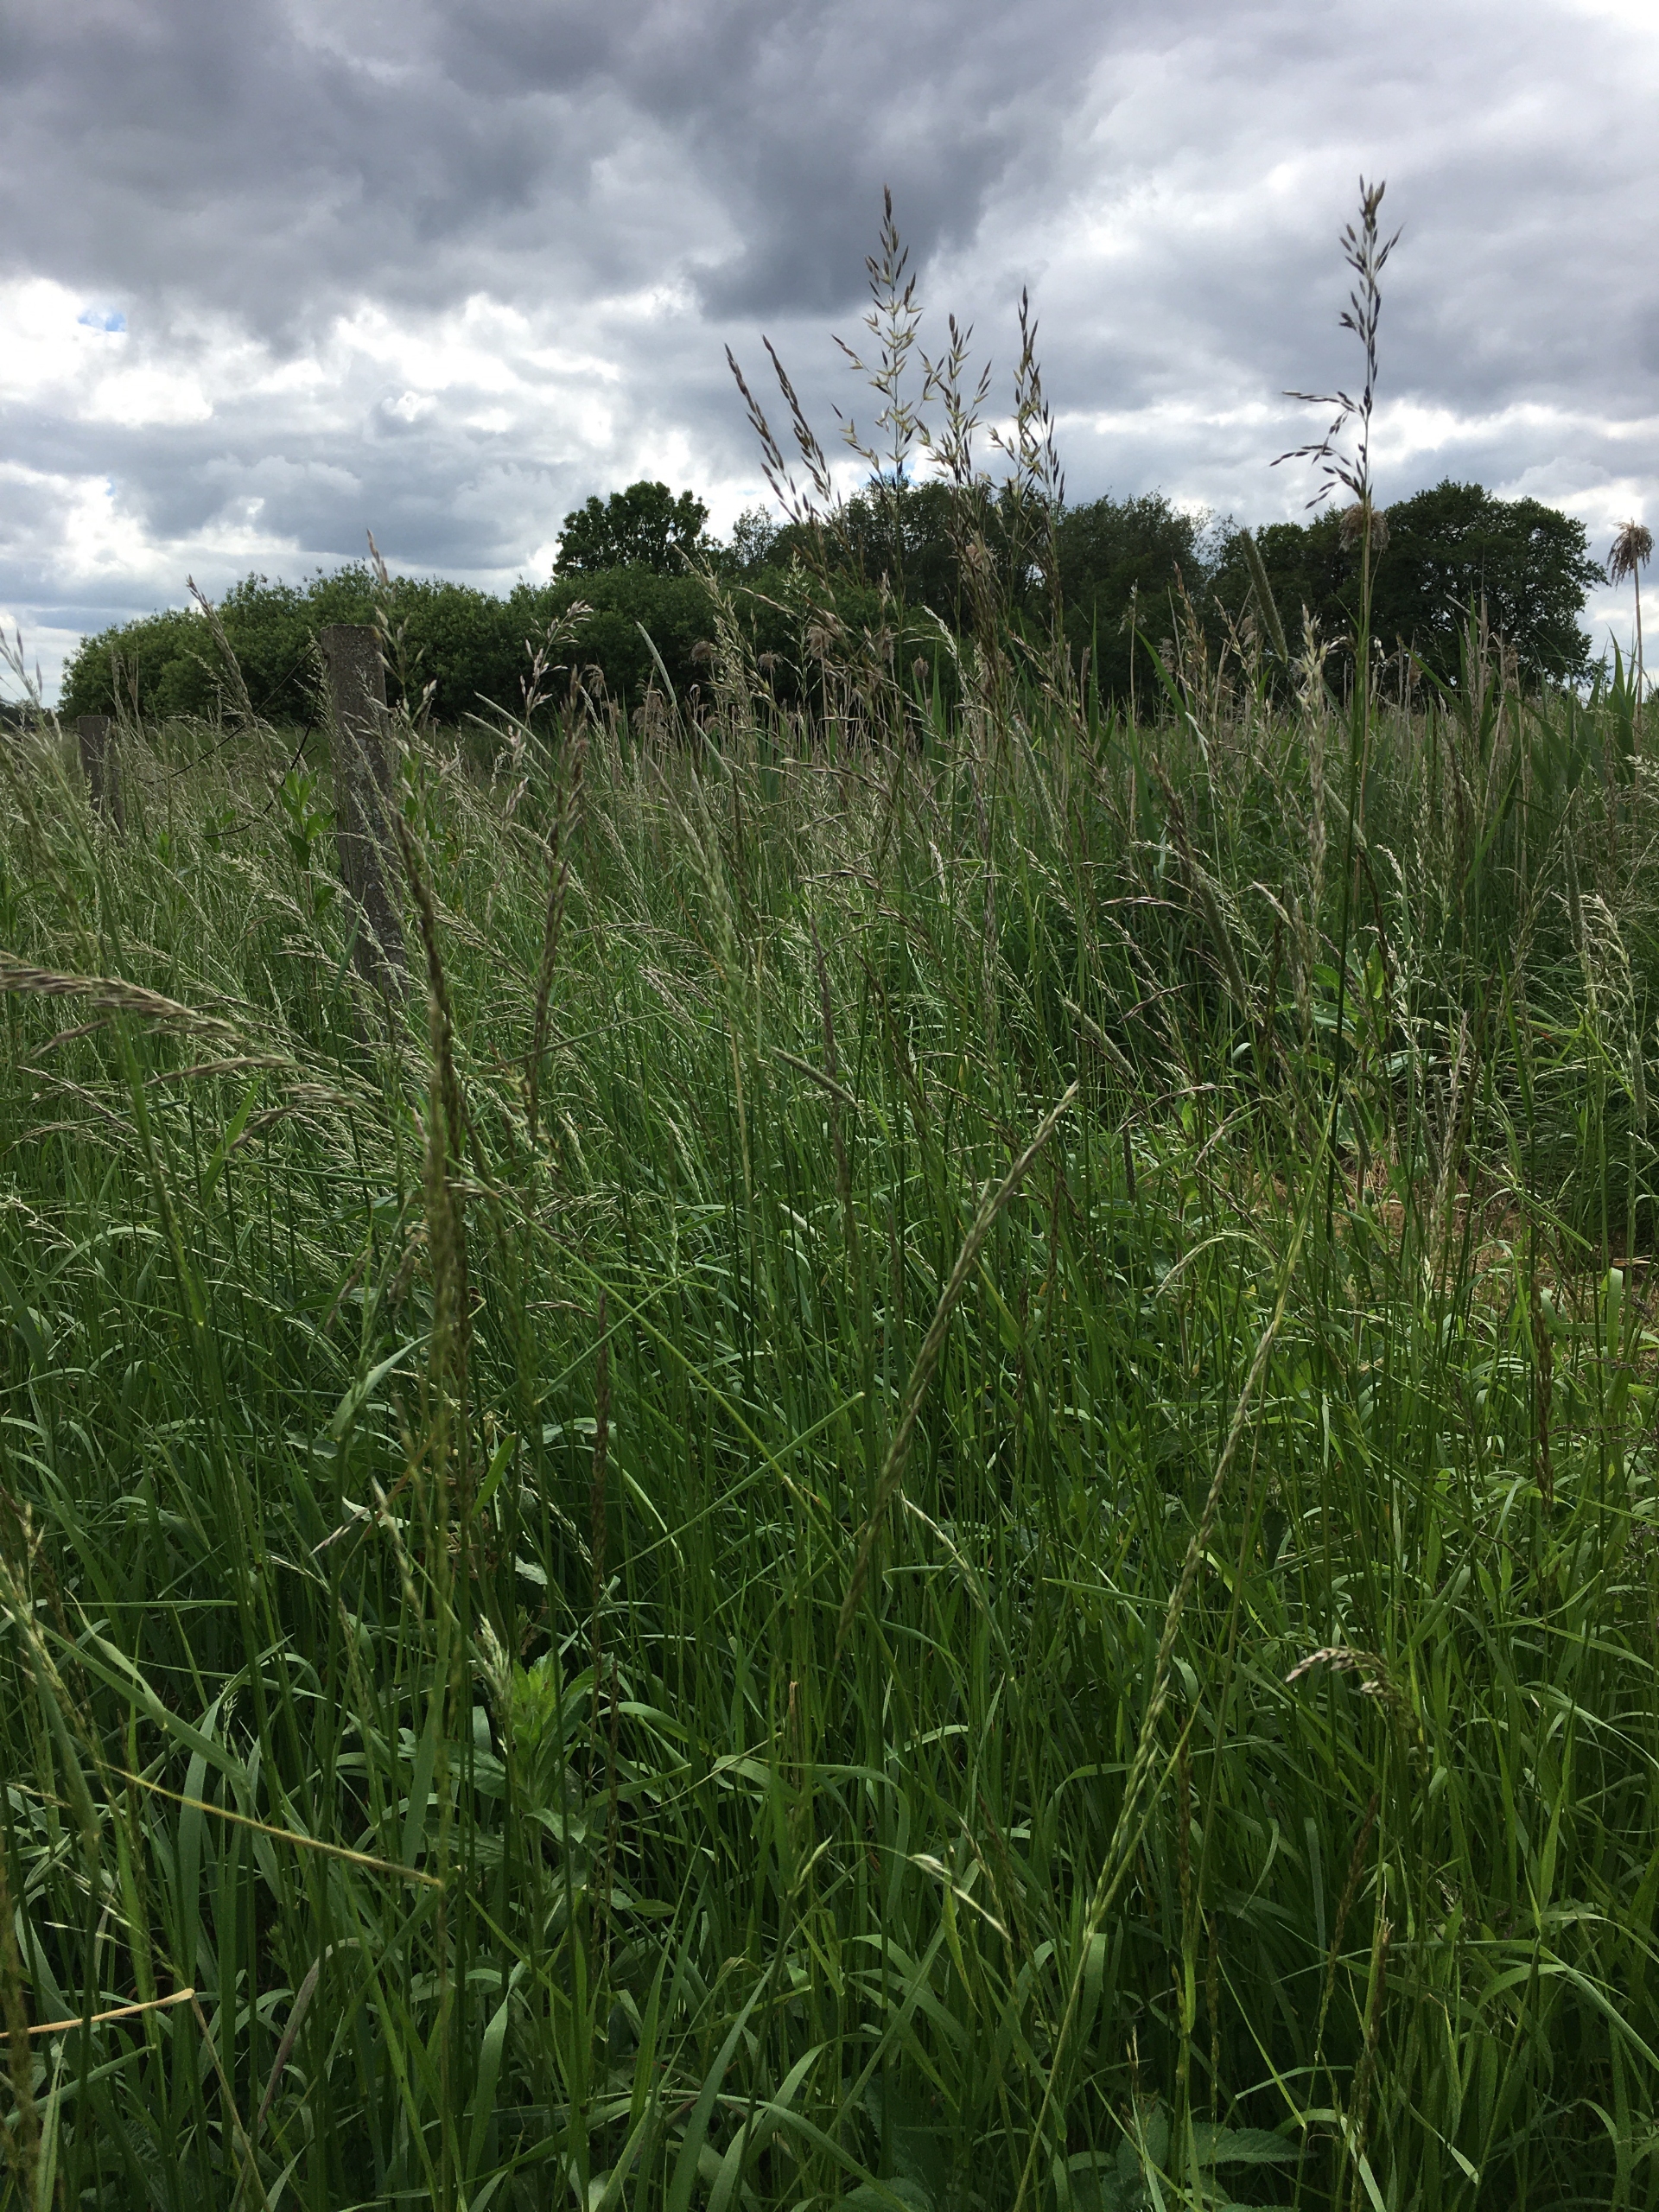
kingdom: Plantae
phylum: Tracheophyta
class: Liliopsida
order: Poales
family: Poaceae
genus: Arrhenatherum
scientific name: Arrhenatherum elatius
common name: Draphavre
